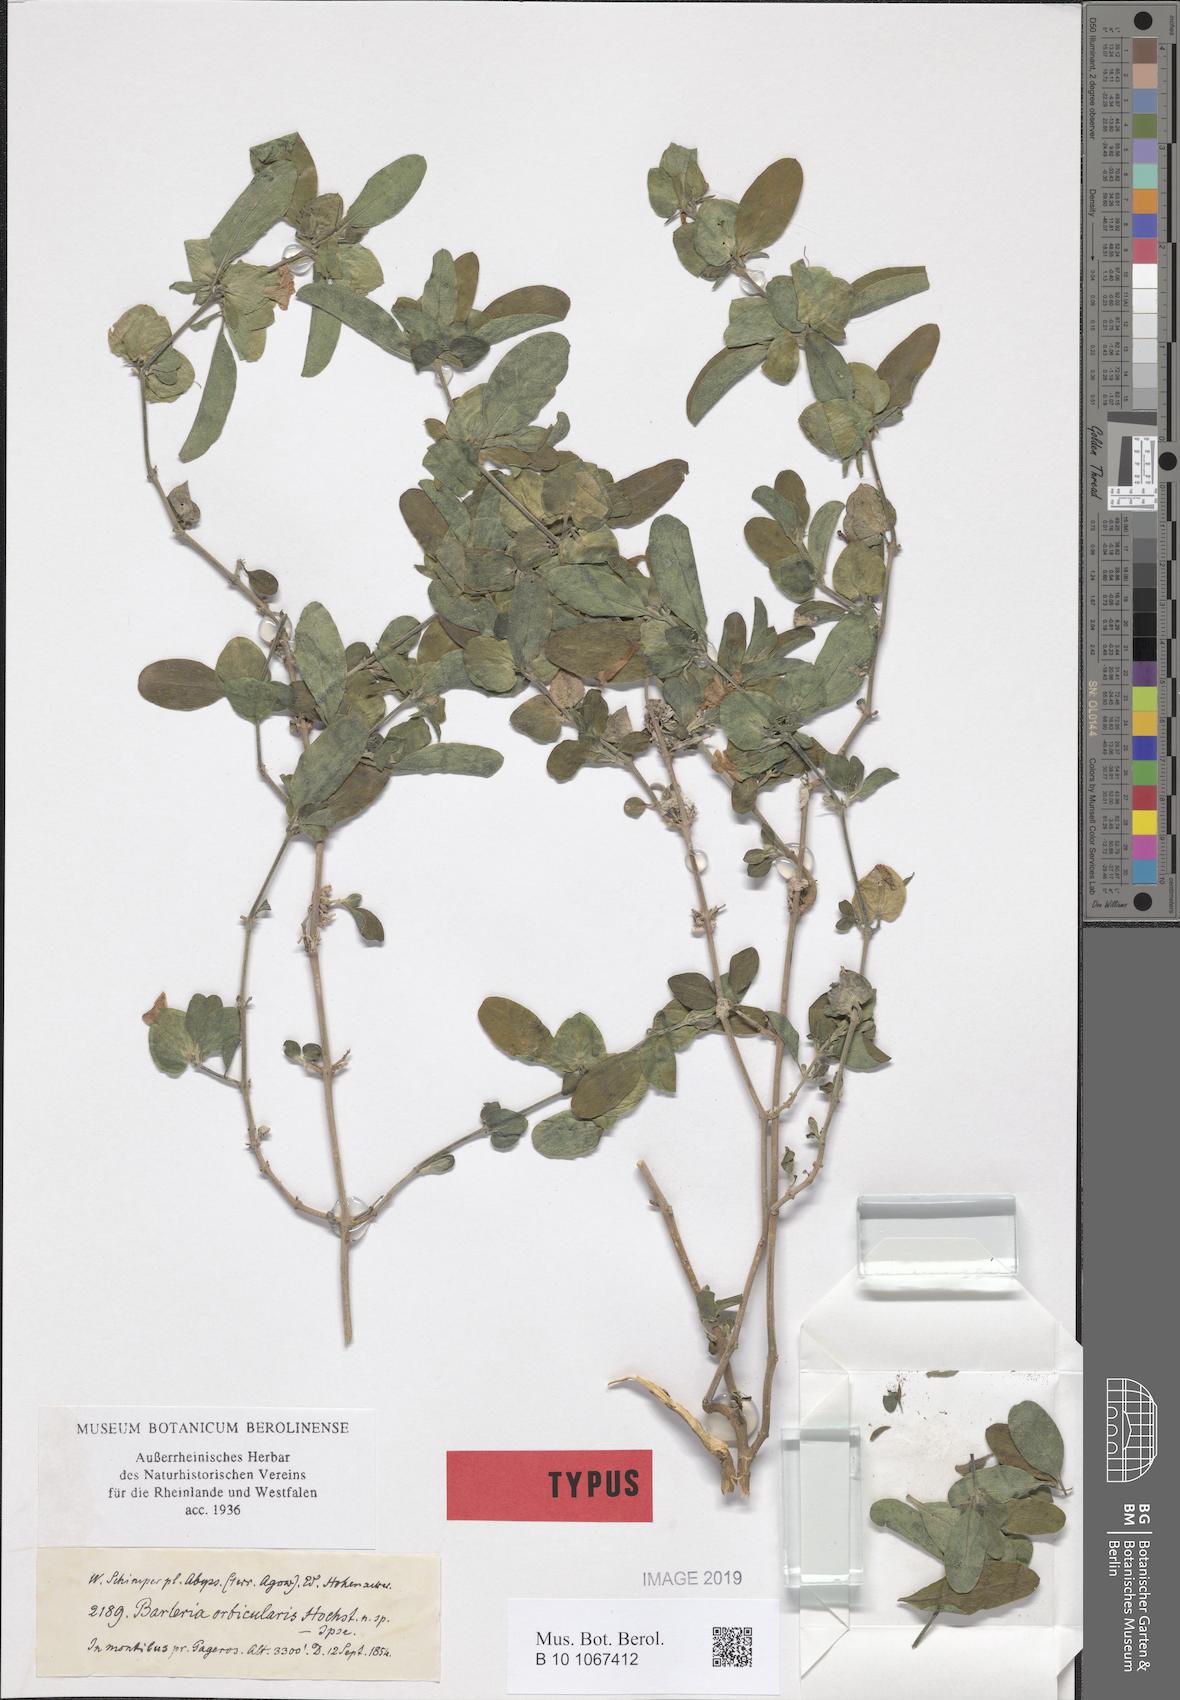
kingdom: Plantae
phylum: Tracheophyta
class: Magnoliopsida
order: Lamiales
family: Acanthaceae
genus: Barleria
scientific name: Barleria orbicularis
